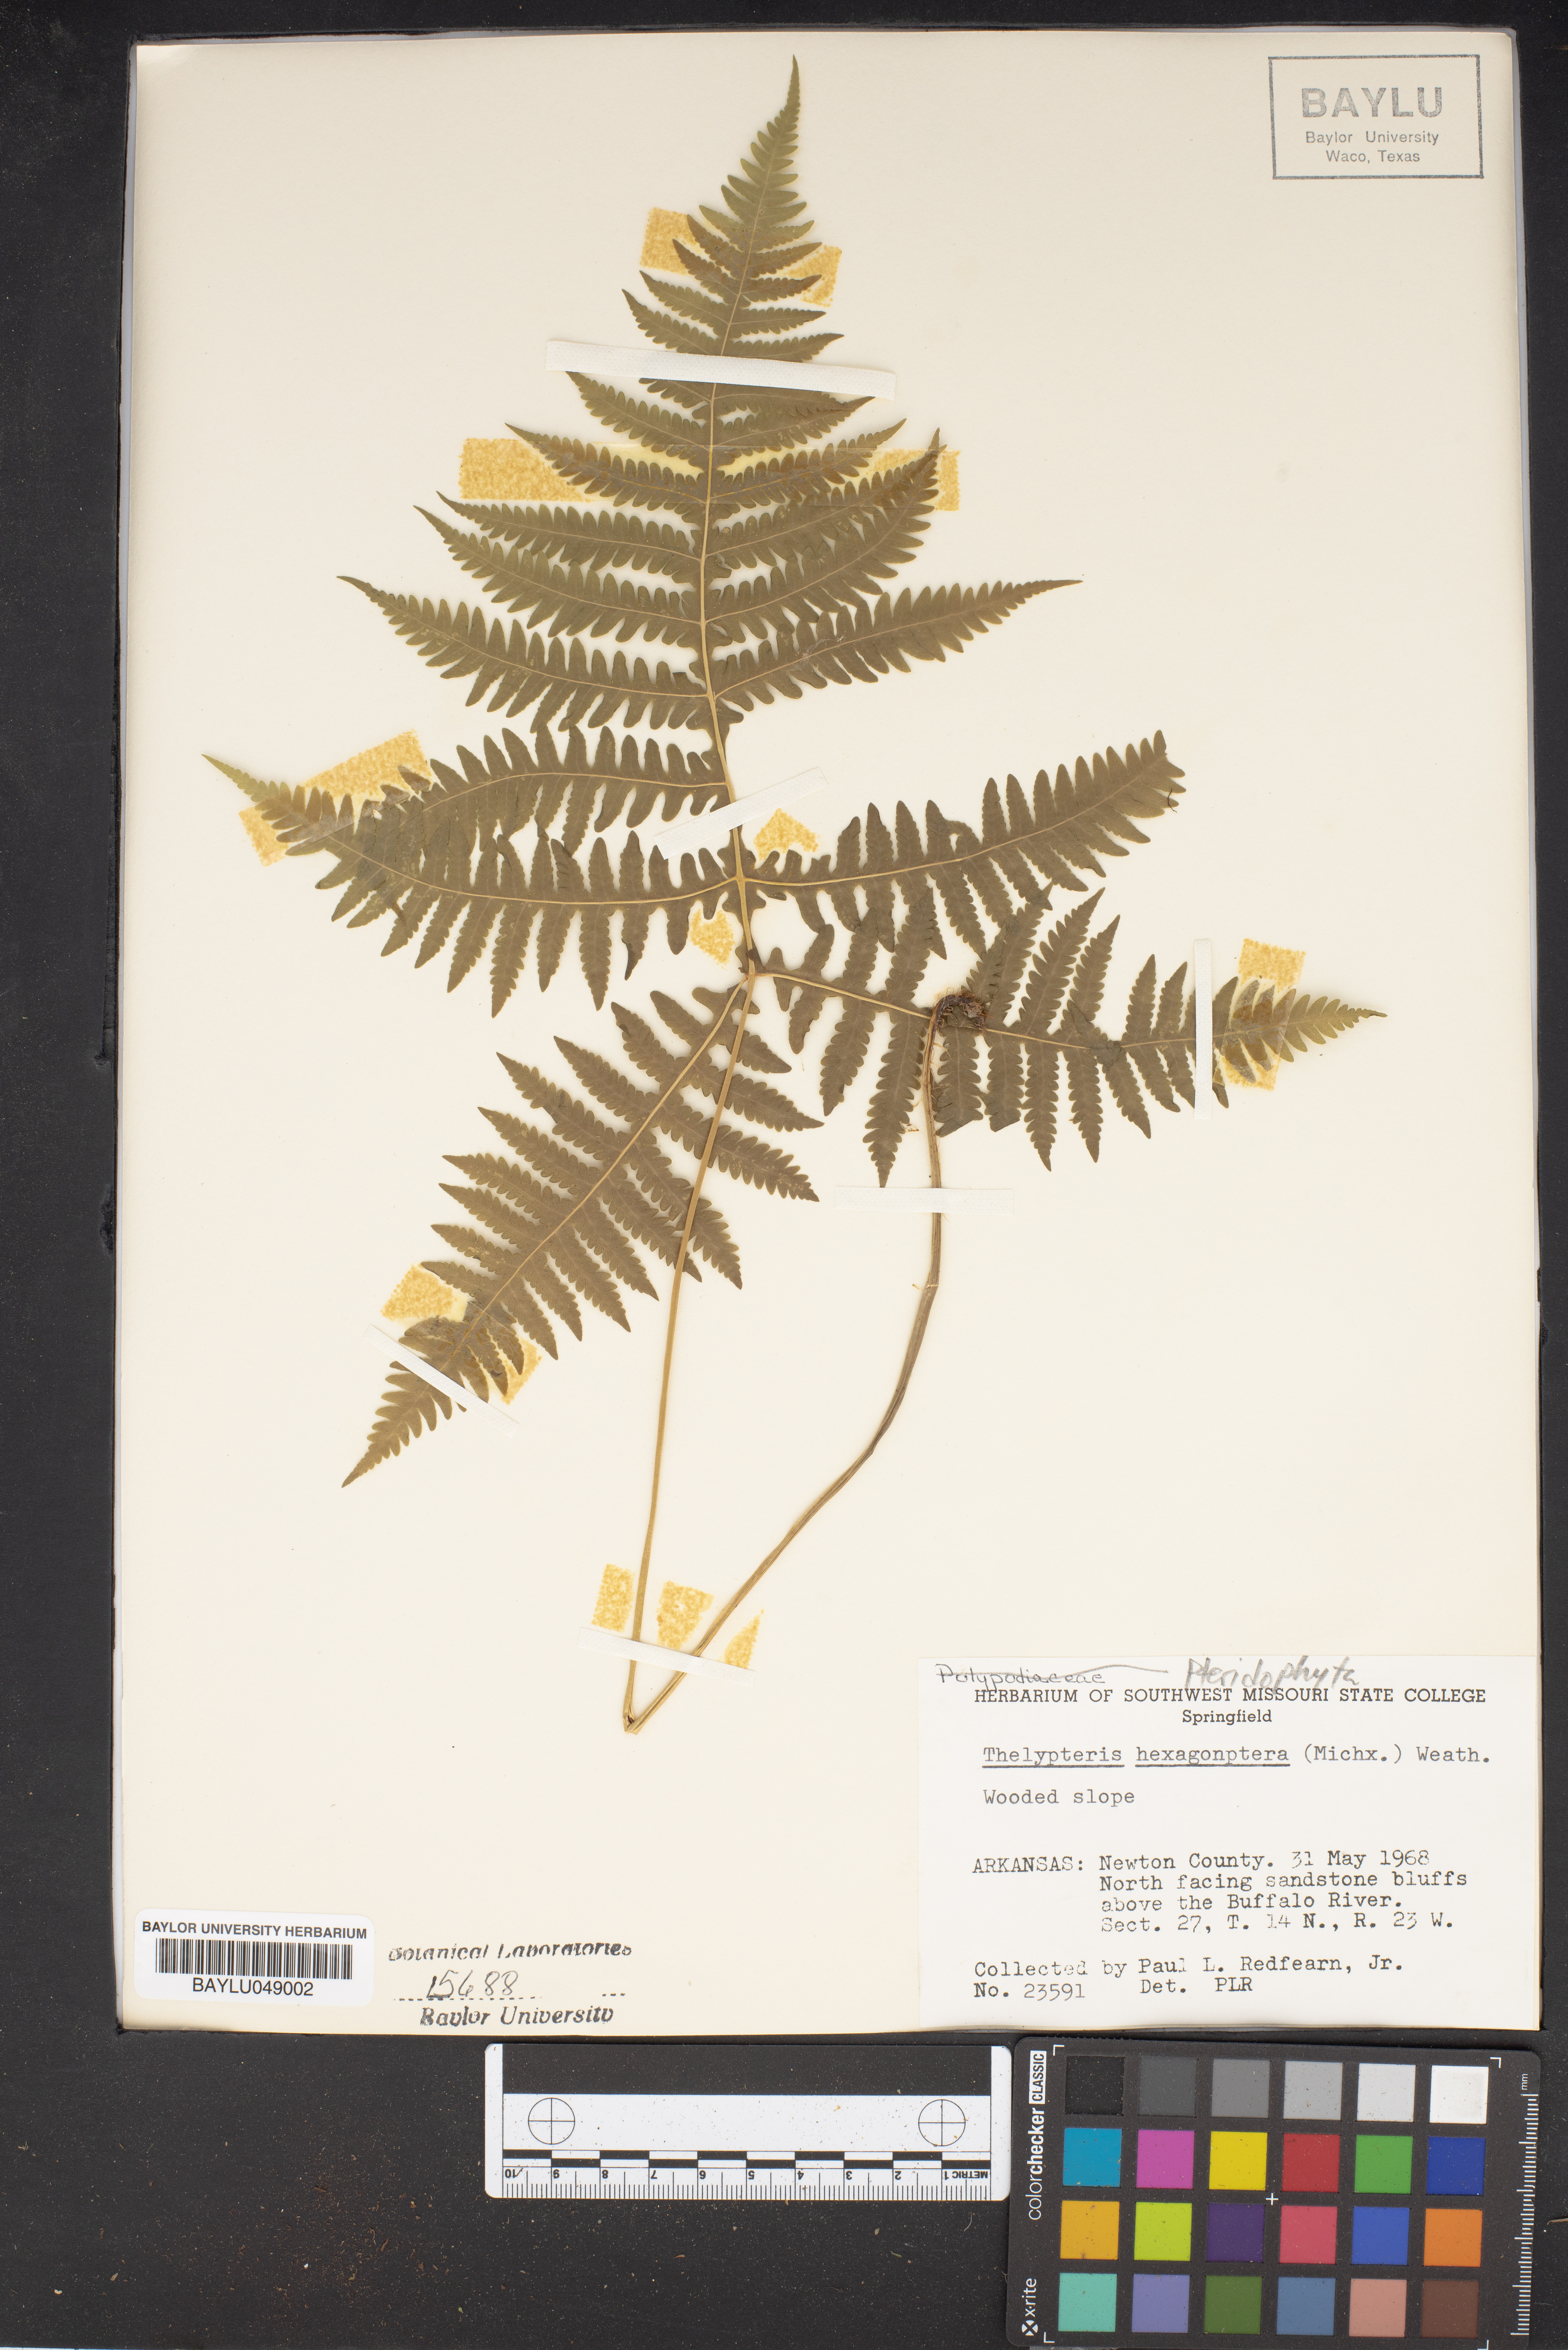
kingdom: Plantae
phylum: Tracheophyta
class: Polypodiopsida
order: Polypodiales
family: Thelypteridaceae
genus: Phegopteris
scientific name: Phegopteris hexagonoptera
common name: Broad beech fern
